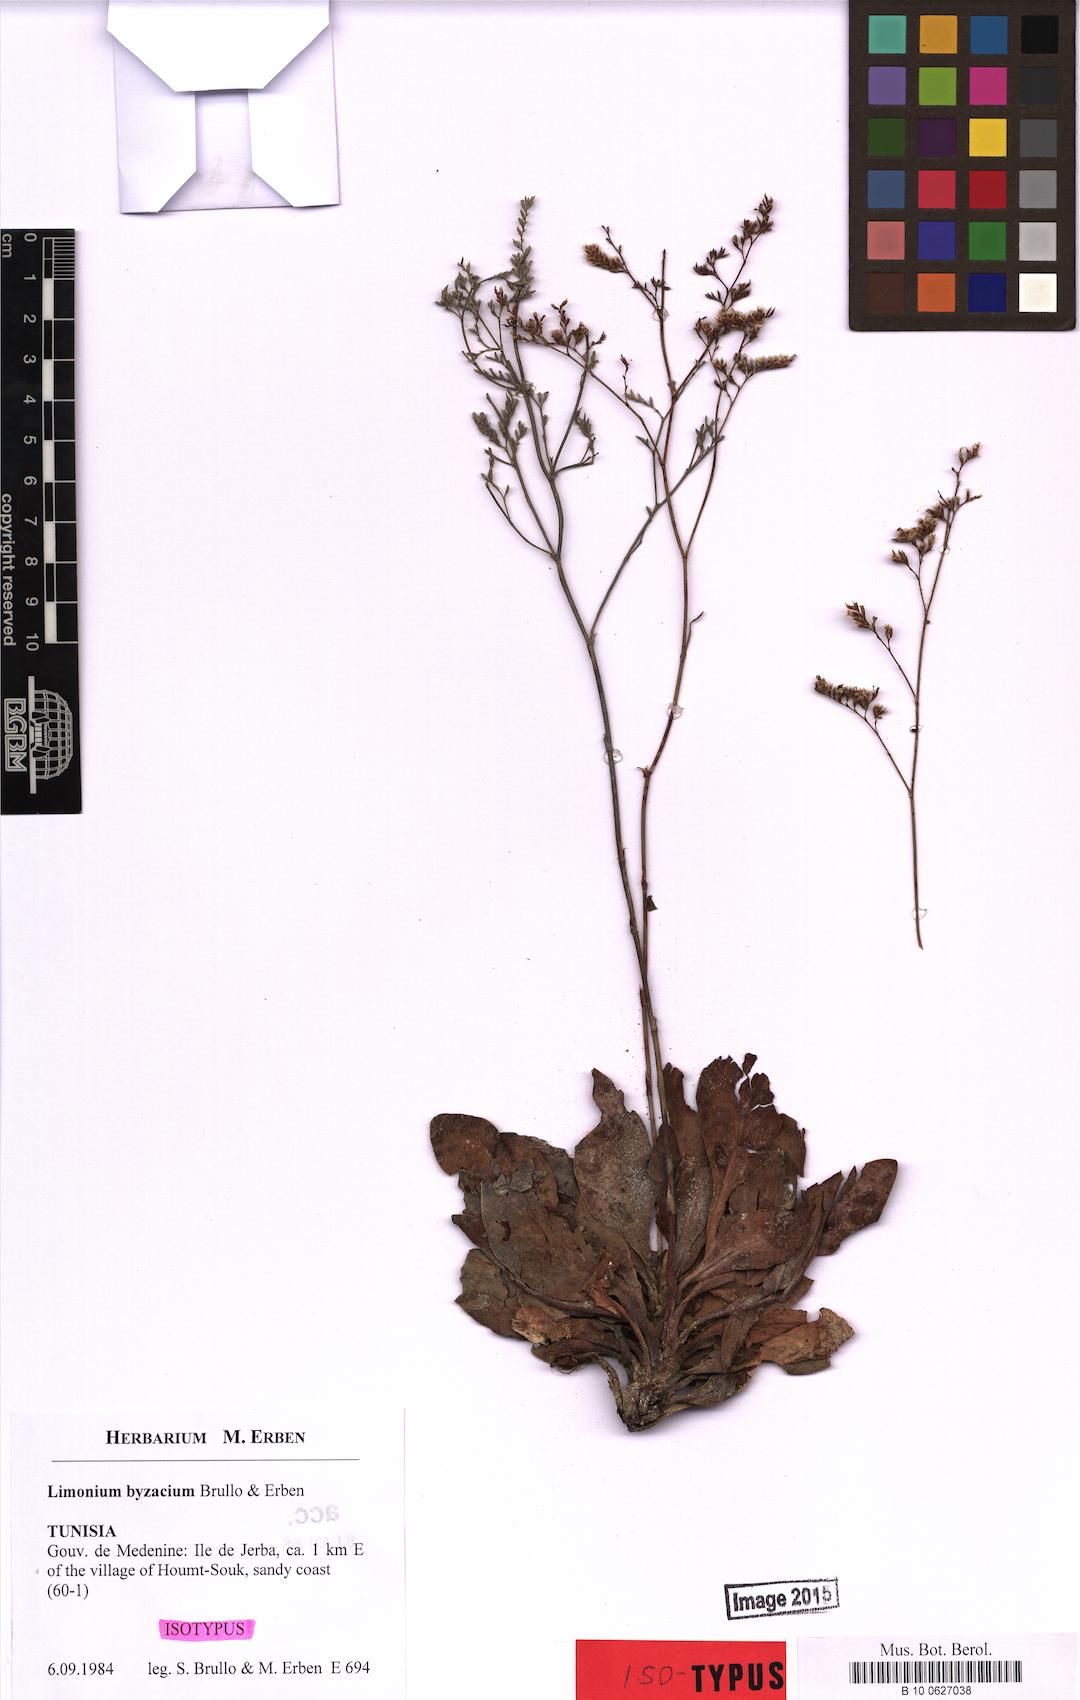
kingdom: Plantae
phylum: Tracheophyta
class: Magnoliopsida
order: Caryophyllales
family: Plumbaginaceae
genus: Limonium
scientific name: Limonium byzacium
